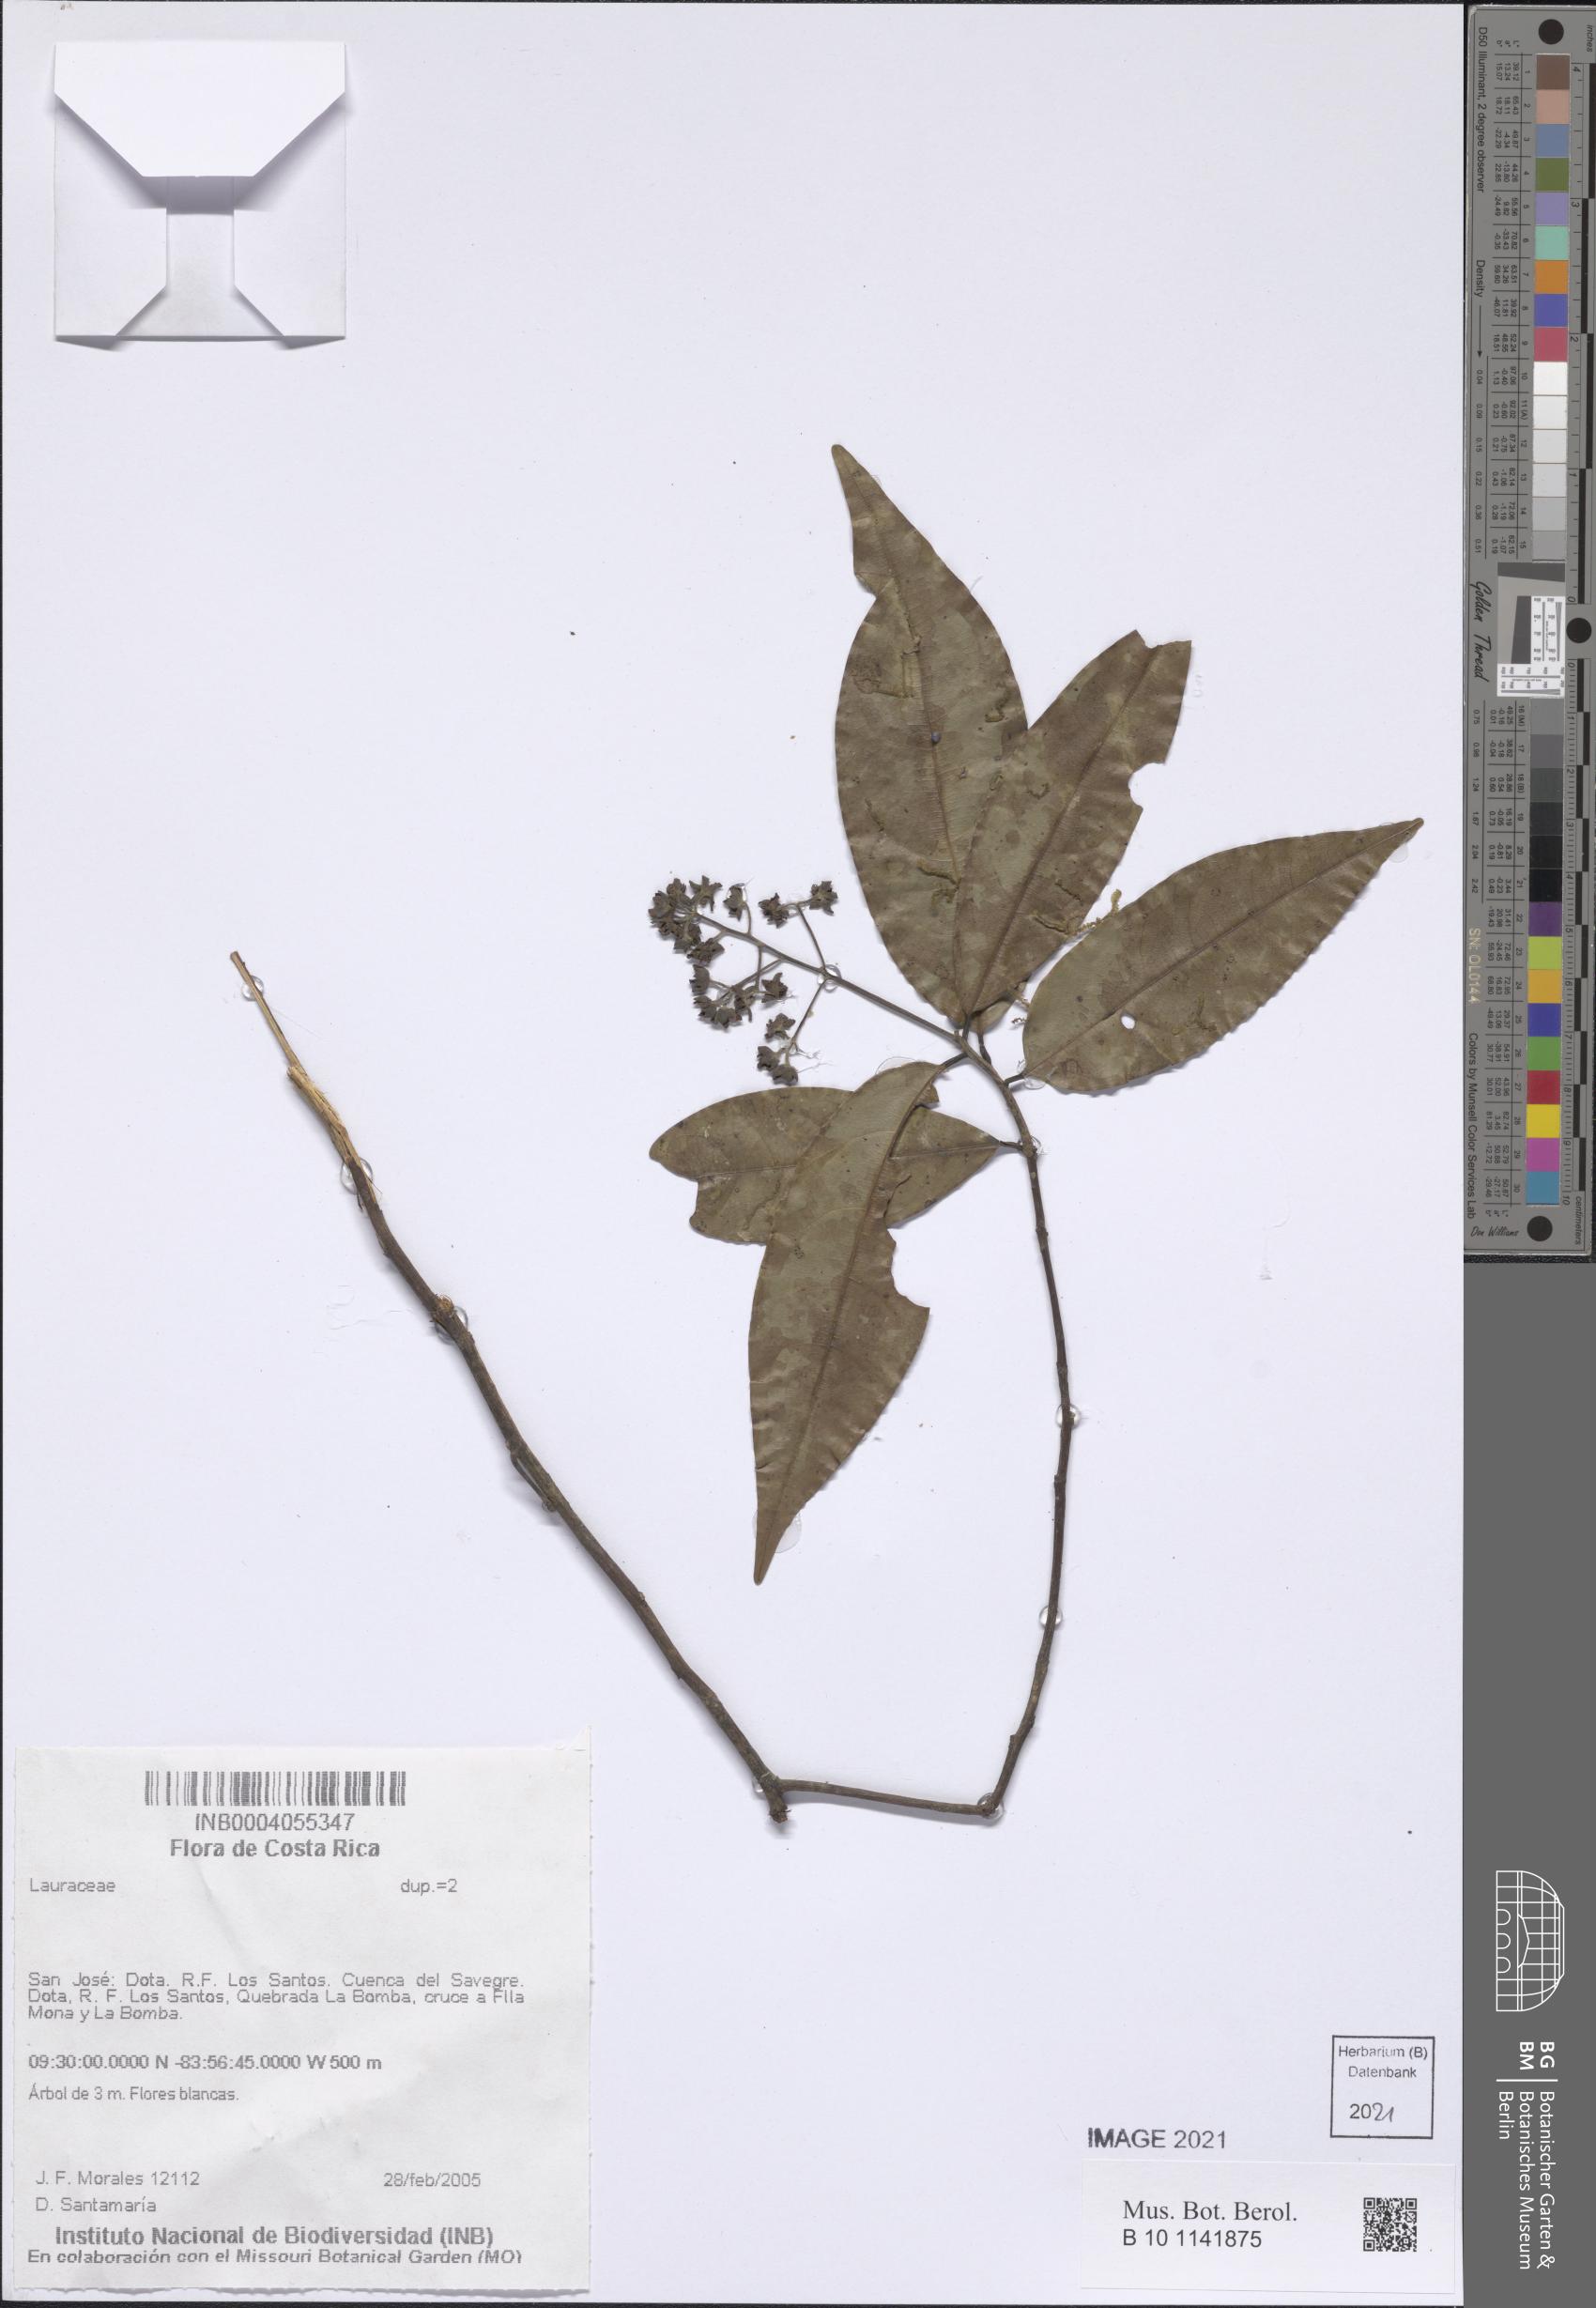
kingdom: Plantae
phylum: Tracheophyta
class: Magnoliopsida
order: Laurales
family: Lauraceae
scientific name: Lauraceae
